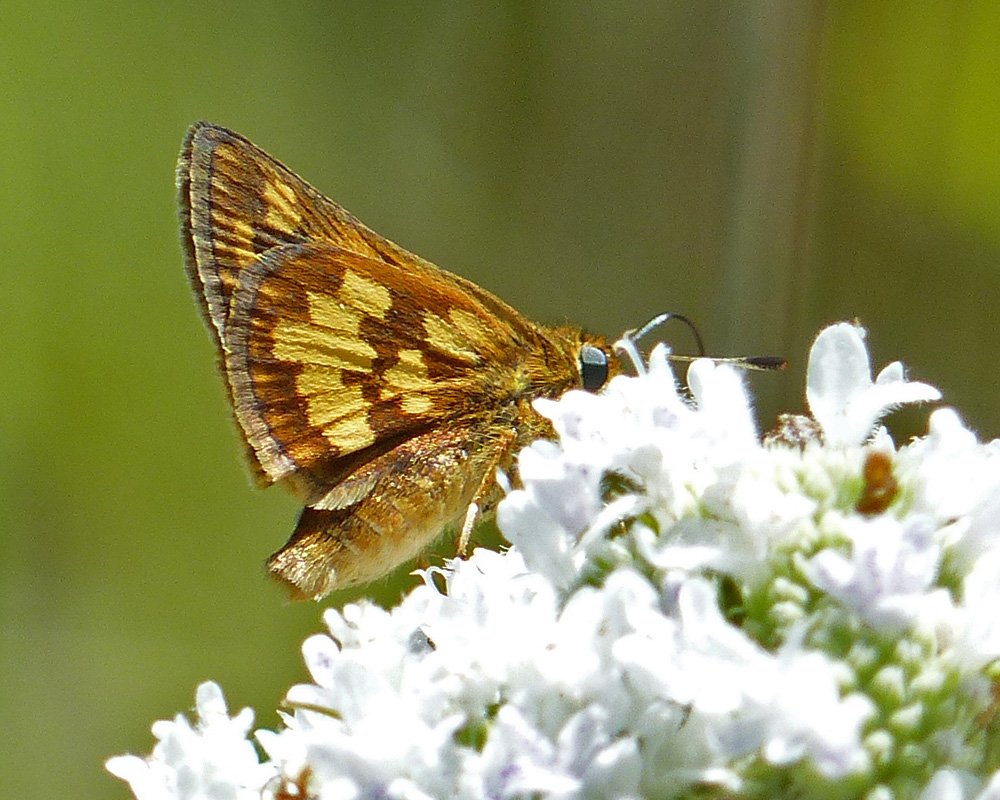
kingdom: Animalia
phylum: Arthropoda
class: Insecta
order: Lepidoptera
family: Hesperiidae
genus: Polites
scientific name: Polites coras
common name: Peck's Skipper
